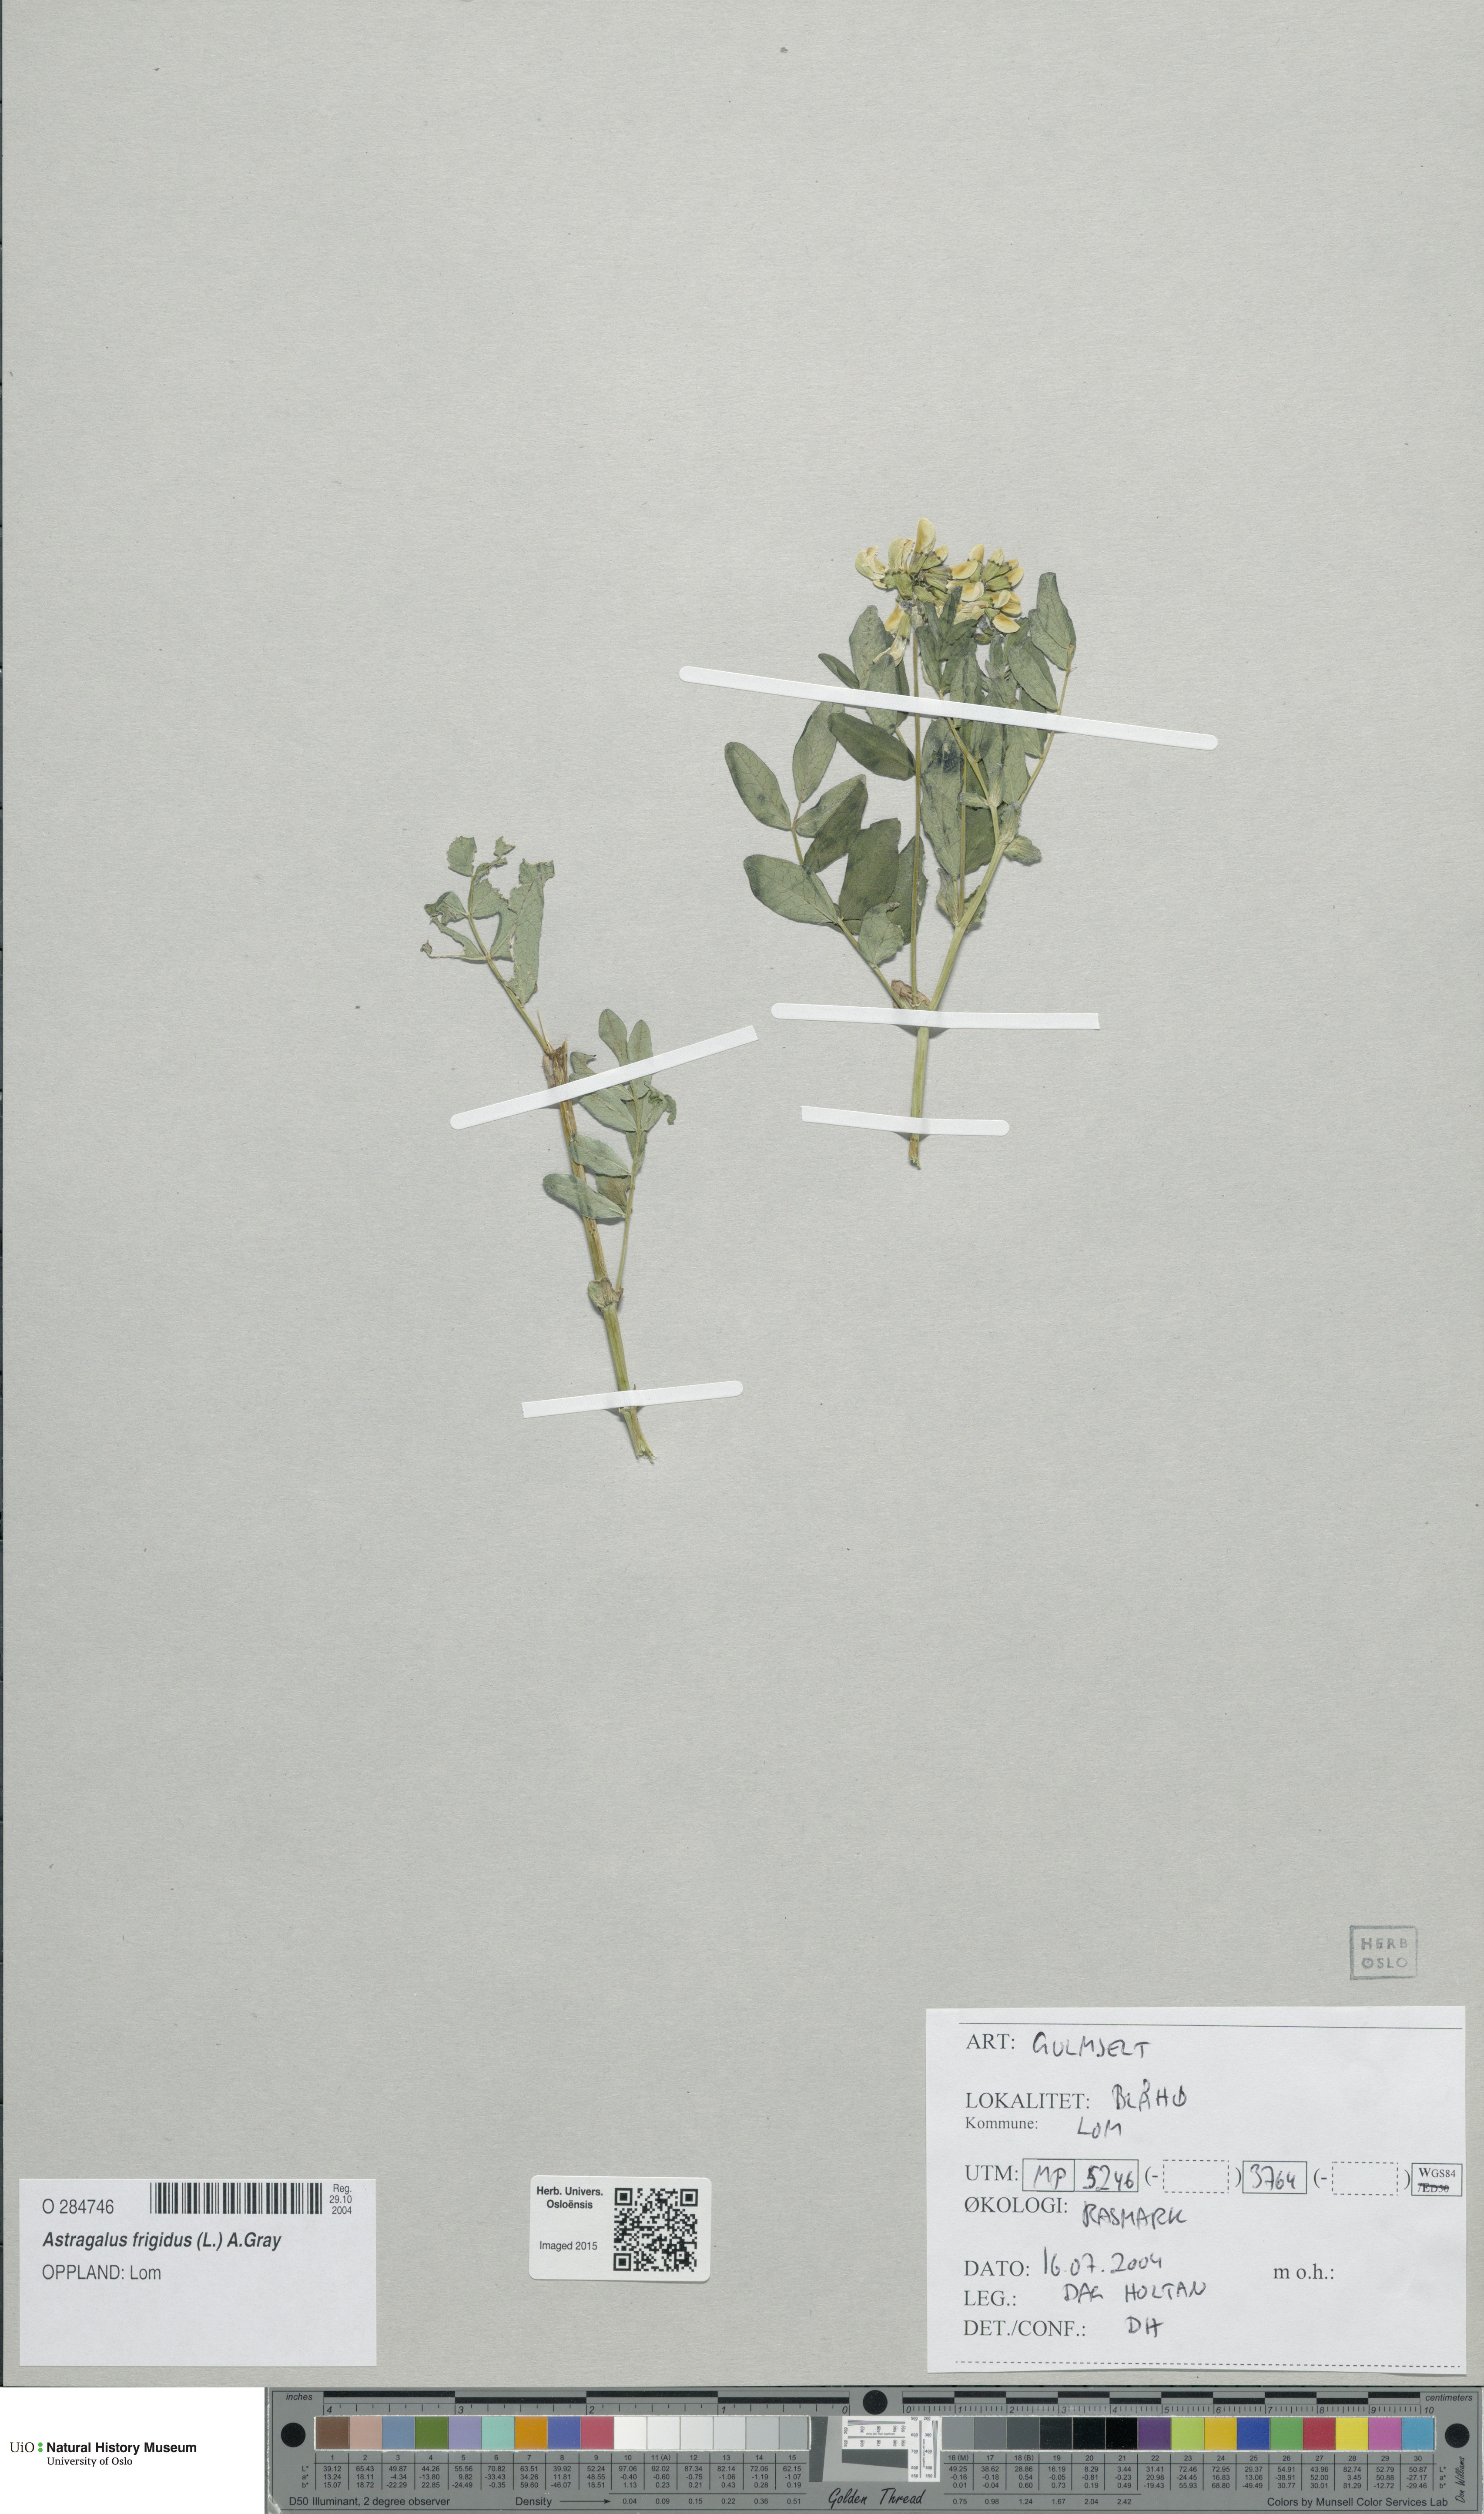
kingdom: Plantae
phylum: Tracheophyta
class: Magnoliopsida
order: Fabales
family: Fabaceae
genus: Astragalus
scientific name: Astragalus frigidus
